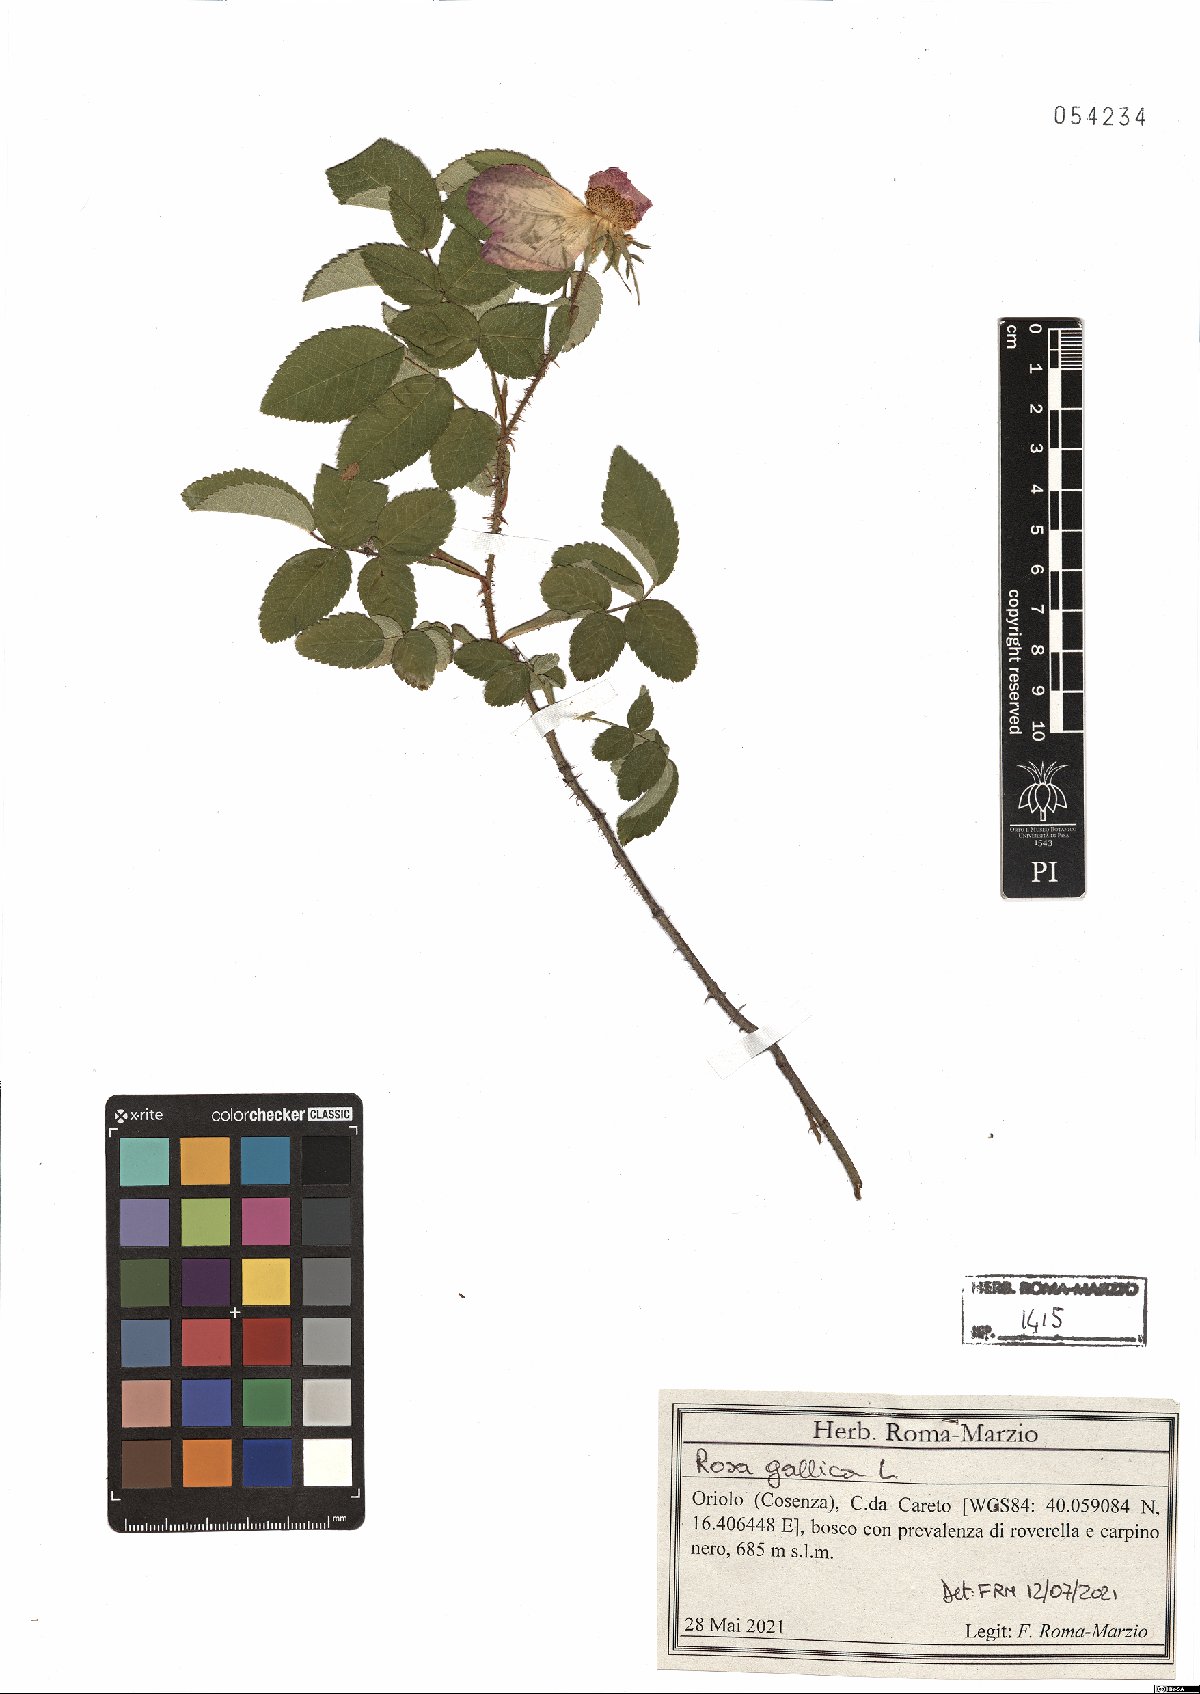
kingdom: Plantae
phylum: Tracheophyta
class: Magnoliopsida
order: Rosales
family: Rosaceae
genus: Rosa
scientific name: Rosa gallica
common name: French rose
